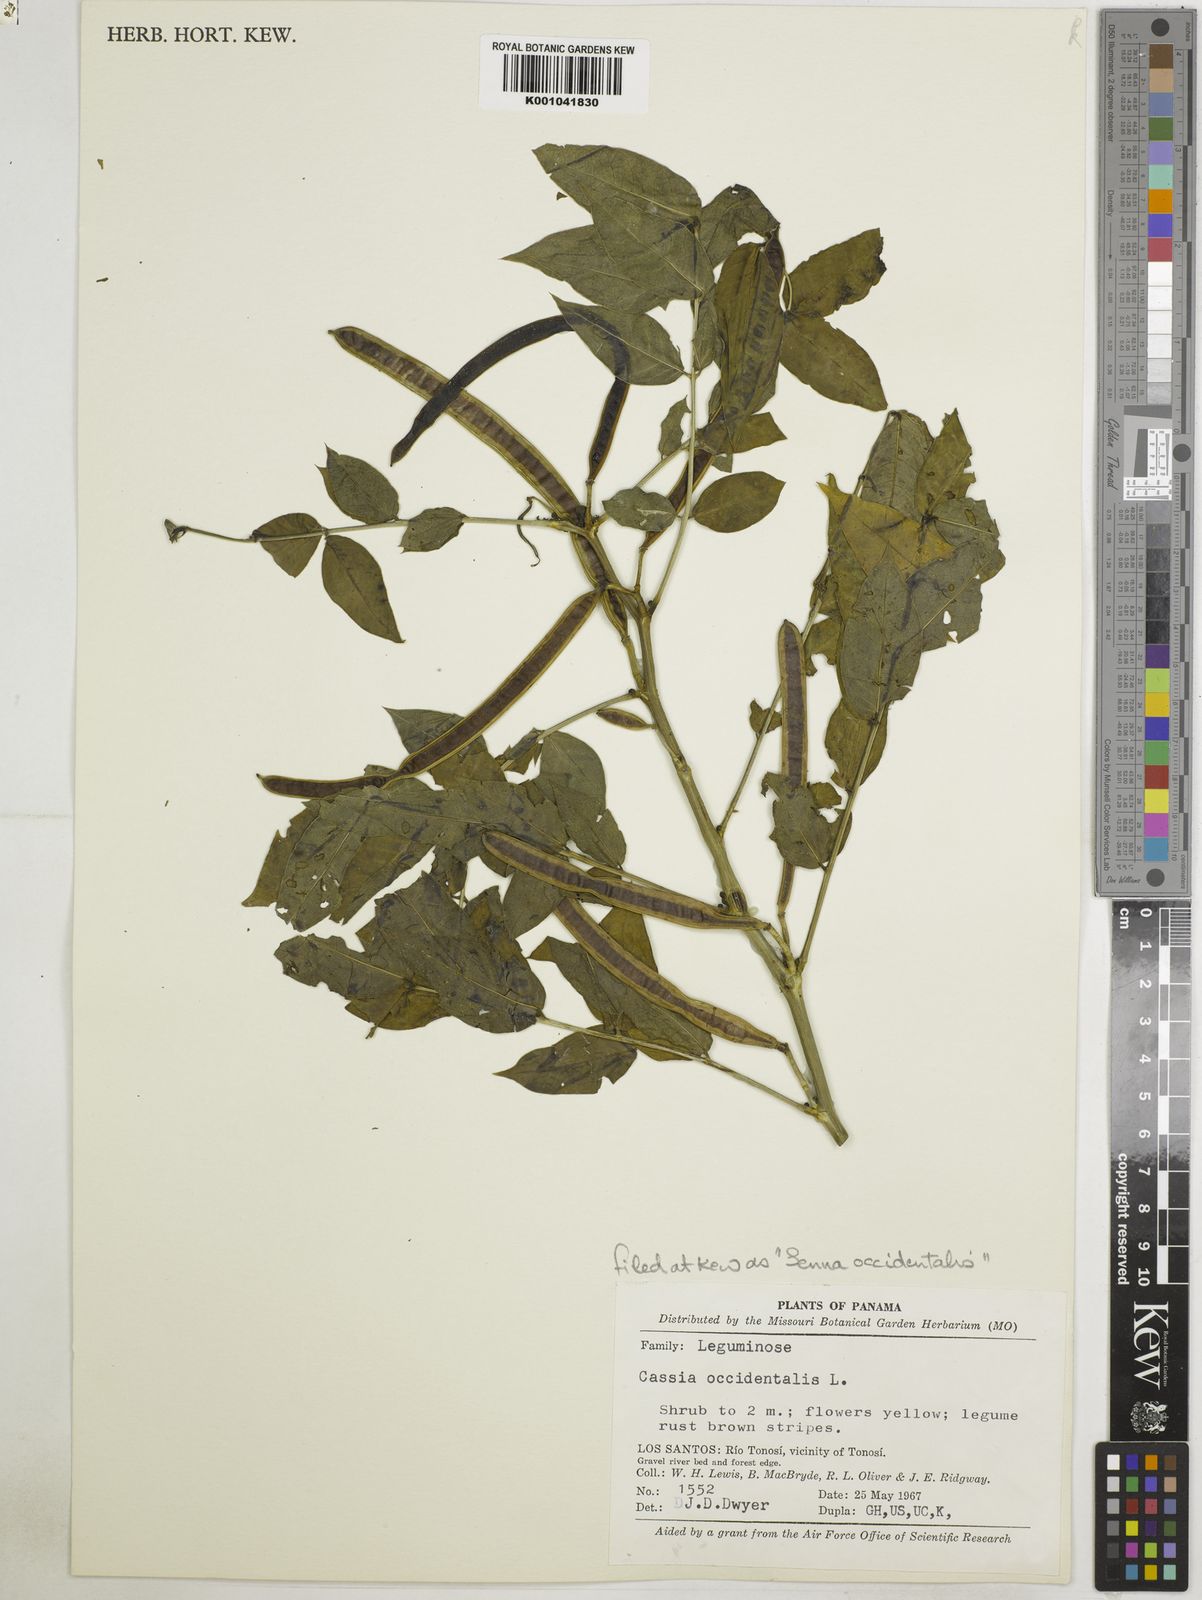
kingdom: Plantae
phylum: Tracheophyta
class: Magnoliopsida
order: Fabales
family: Fabaceae
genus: Senna
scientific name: Senna occidentalis
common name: Septicweed
